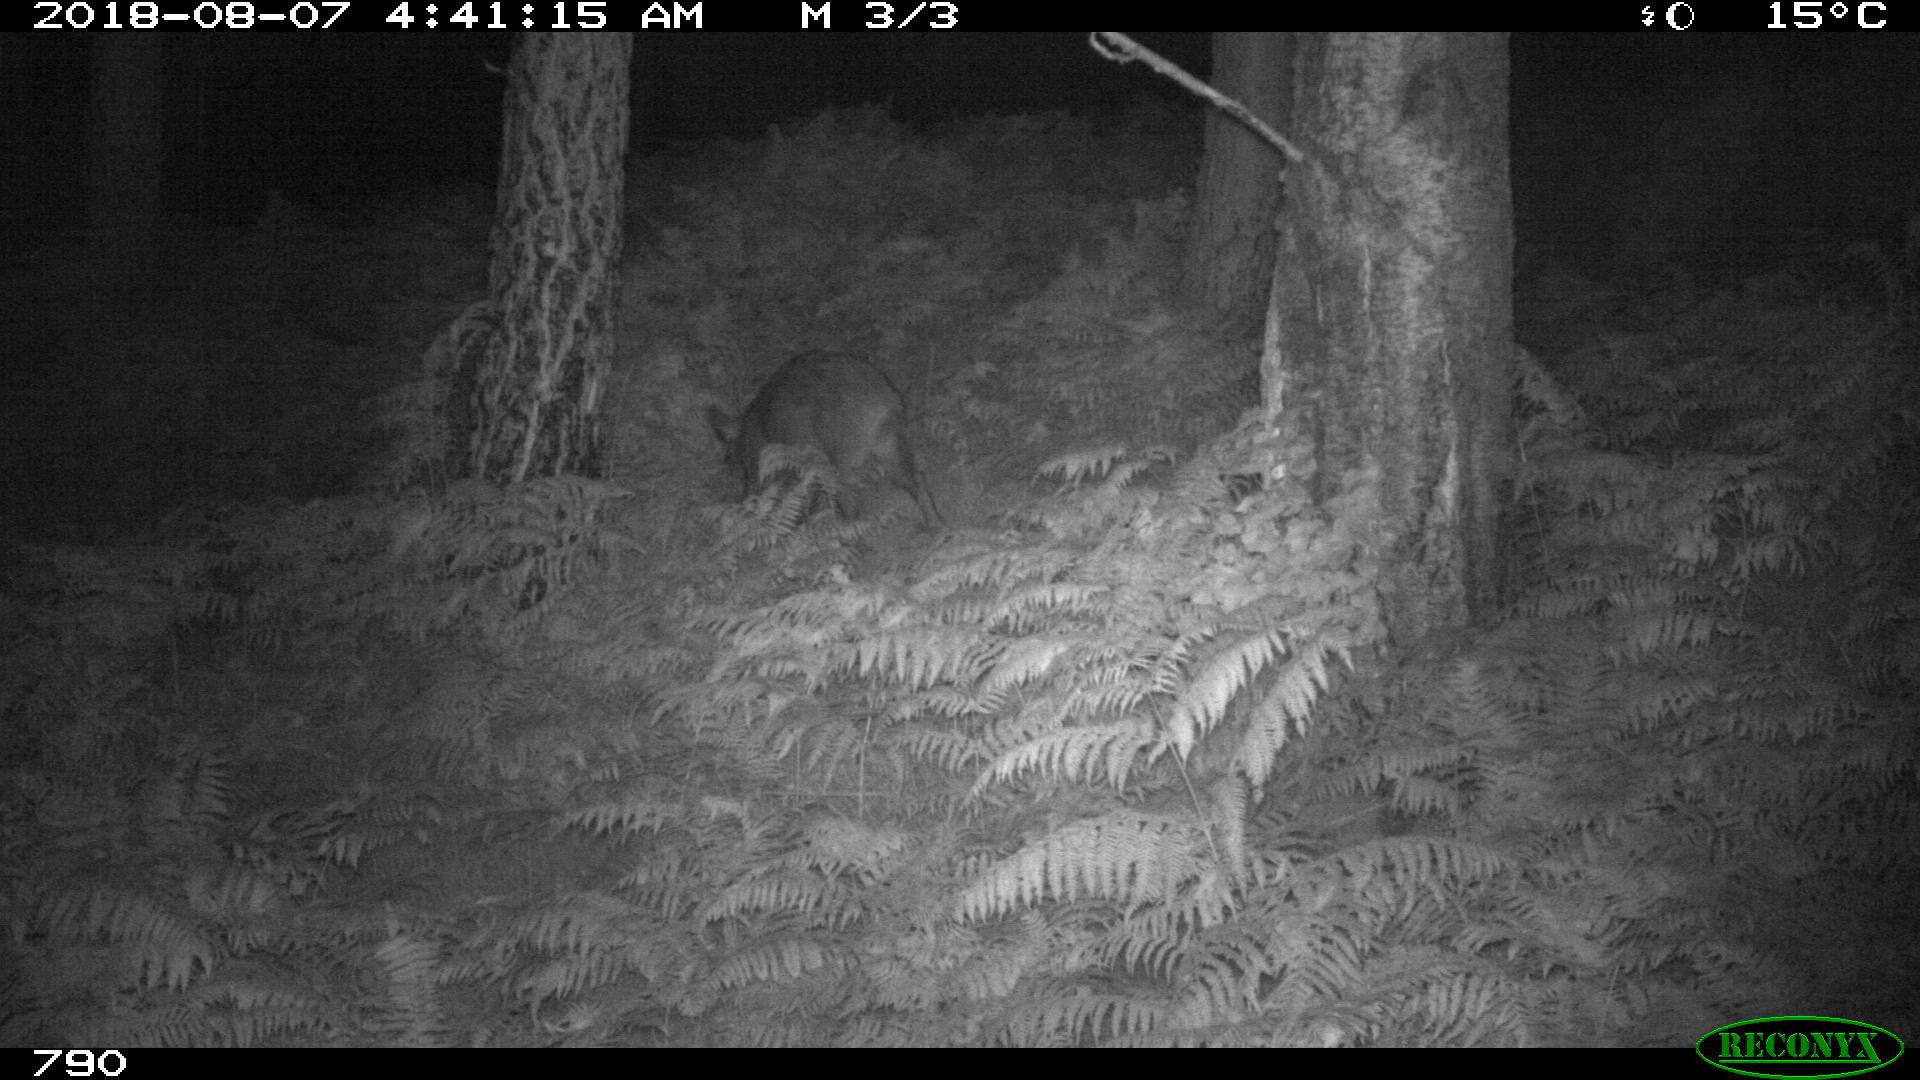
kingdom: Animalia
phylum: Chordata
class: Mammalia
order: Artiodactyla
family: Suidae
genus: Sus
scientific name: Sus scrofa
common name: Wild boar
